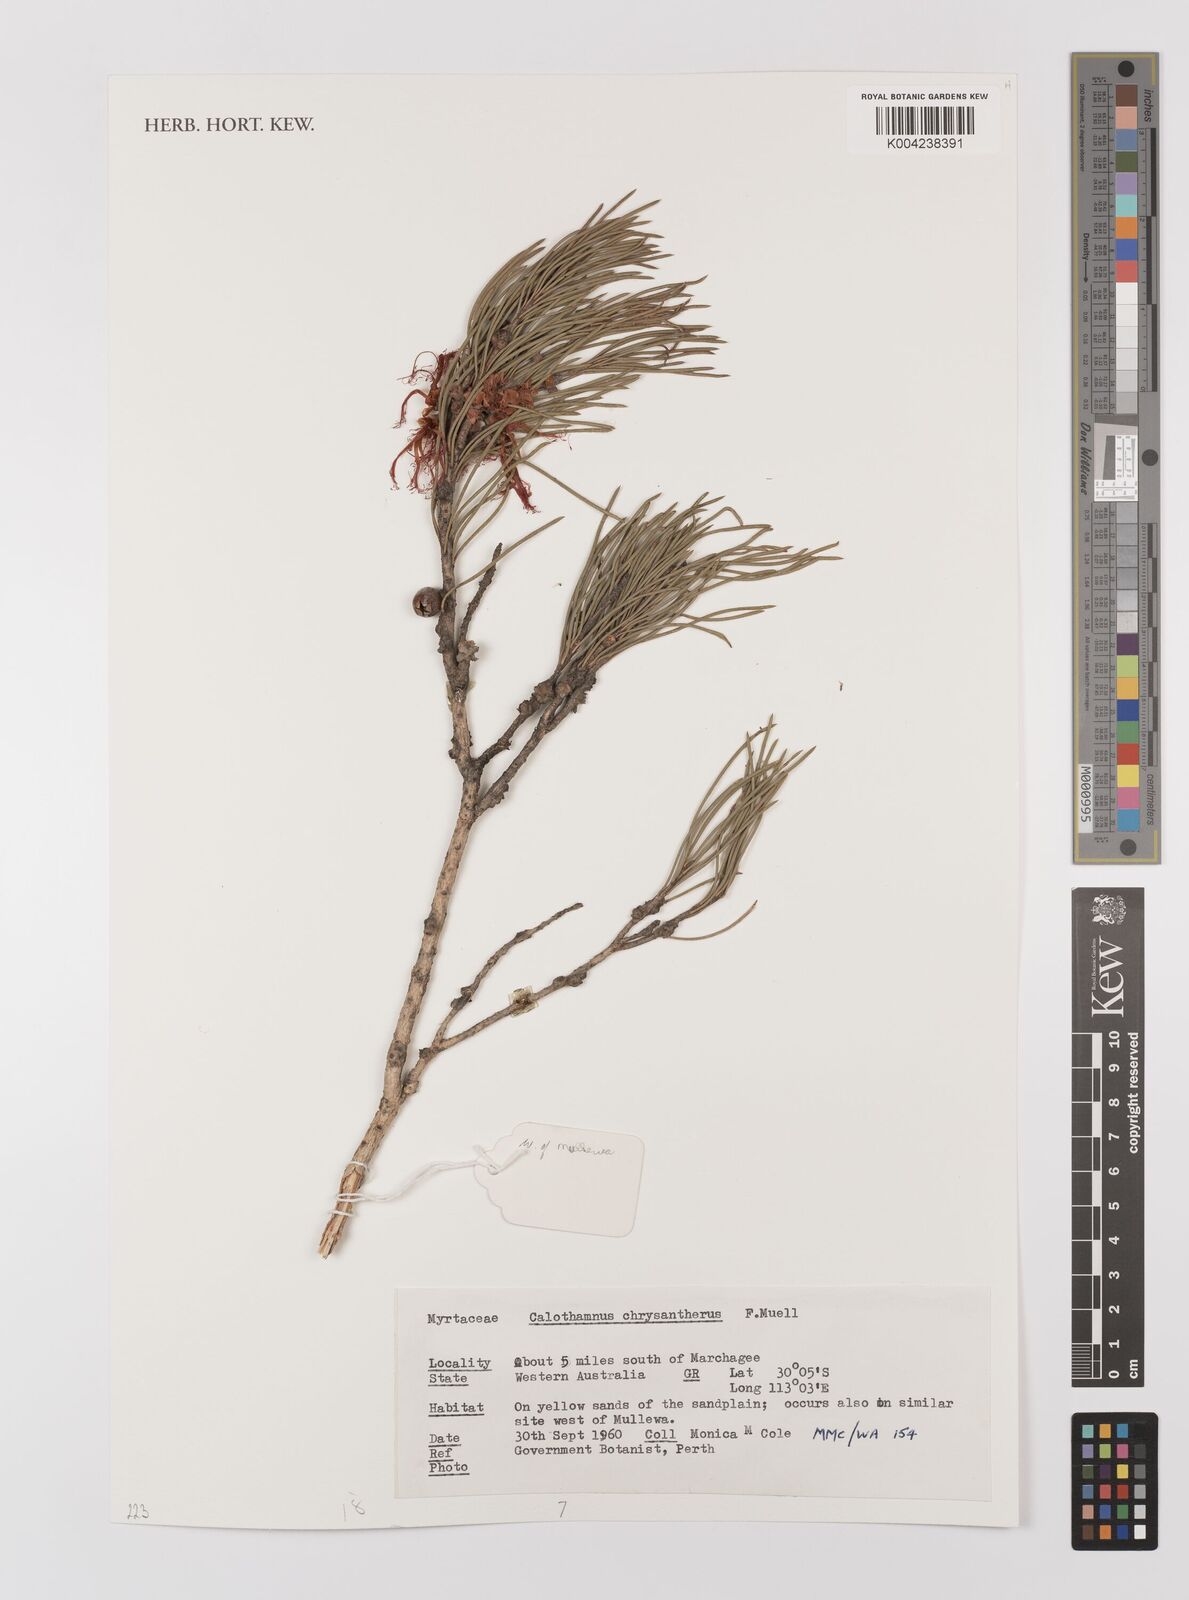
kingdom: Plantae
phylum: Tracheophyta
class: Magnoliopsida
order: Myrtales
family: Myrtaceae
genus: Melaleuca
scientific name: Melaleuca chrysantherea
